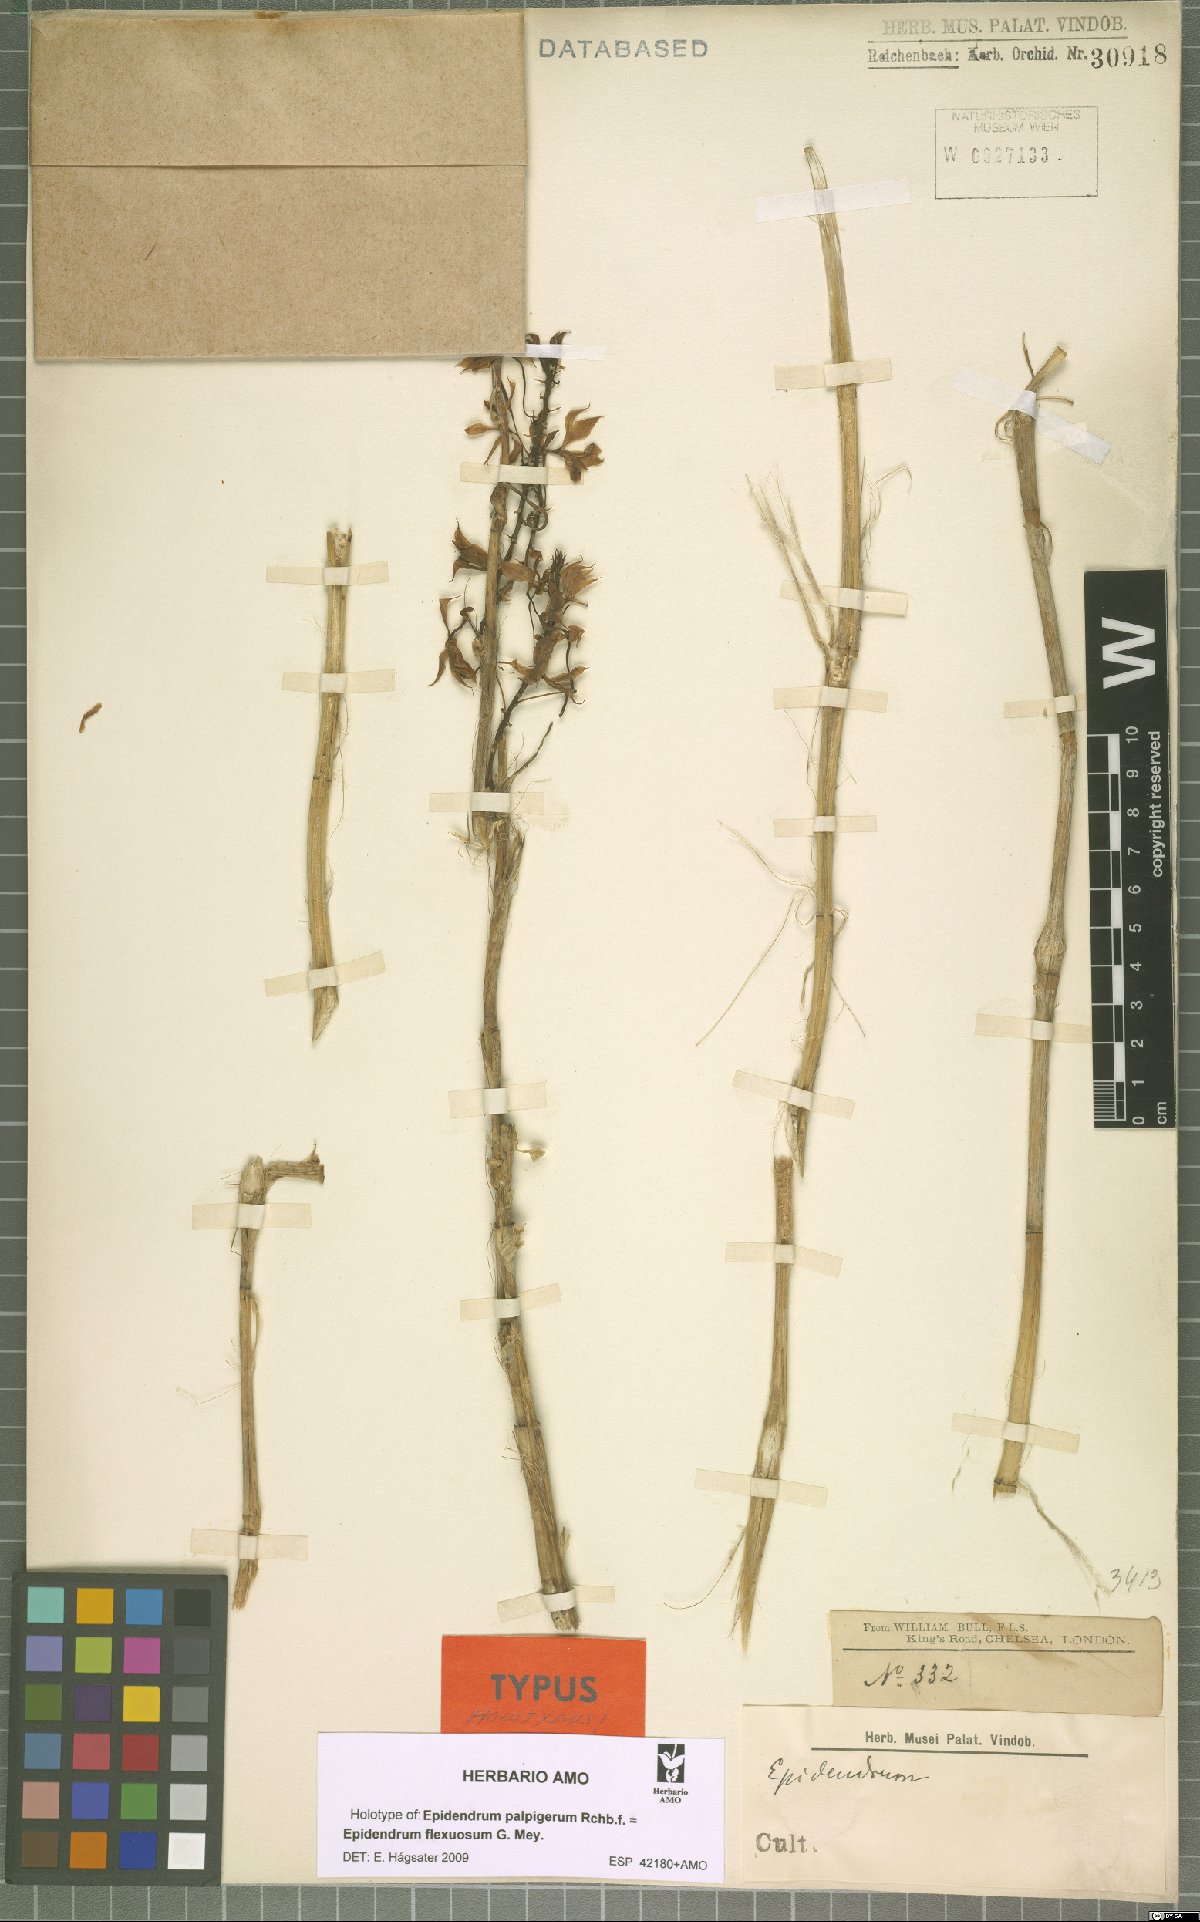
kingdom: Plantae
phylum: Tracheophyta
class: Liliopsida
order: Asparagales
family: Orchidaceae
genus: Epidendrum
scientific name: Epidendrum flexuosum
